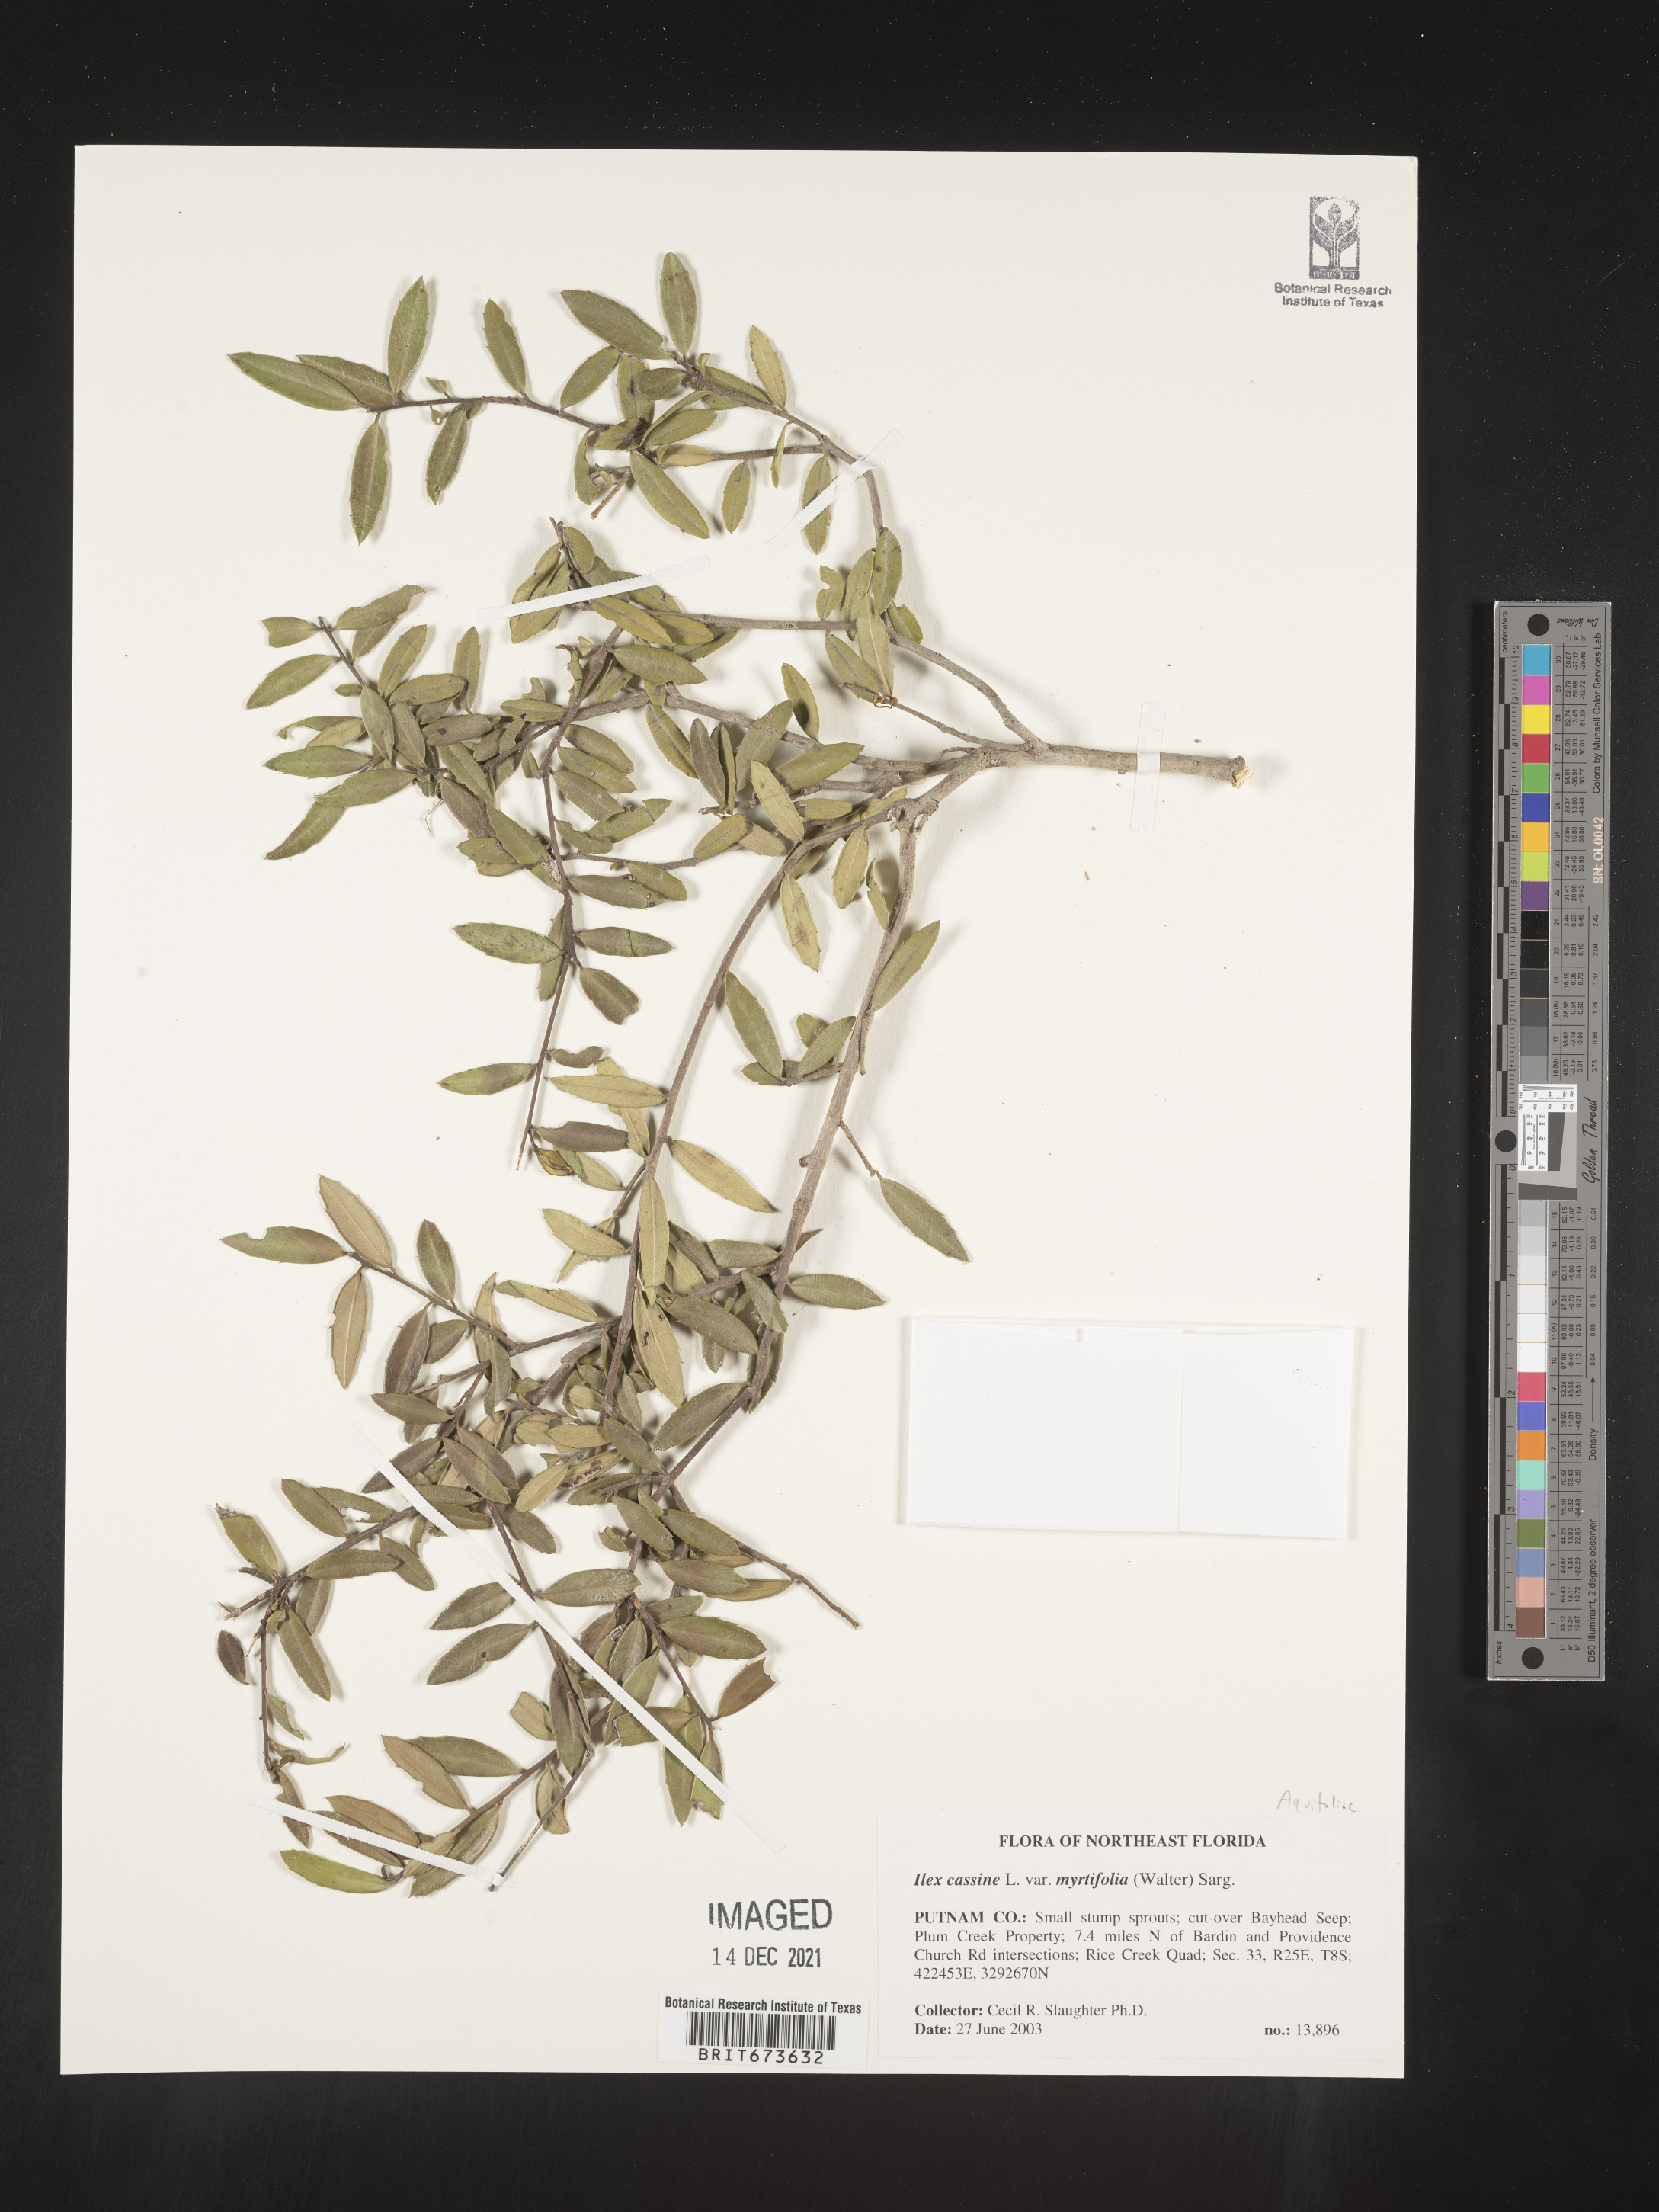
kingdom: Plantae
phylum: Tracheophyta
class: Magnoliopsida
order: Aquifoliales
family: Aquifoliaceae
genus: Ilex
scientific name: Ilex cassine
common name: Dahoon
